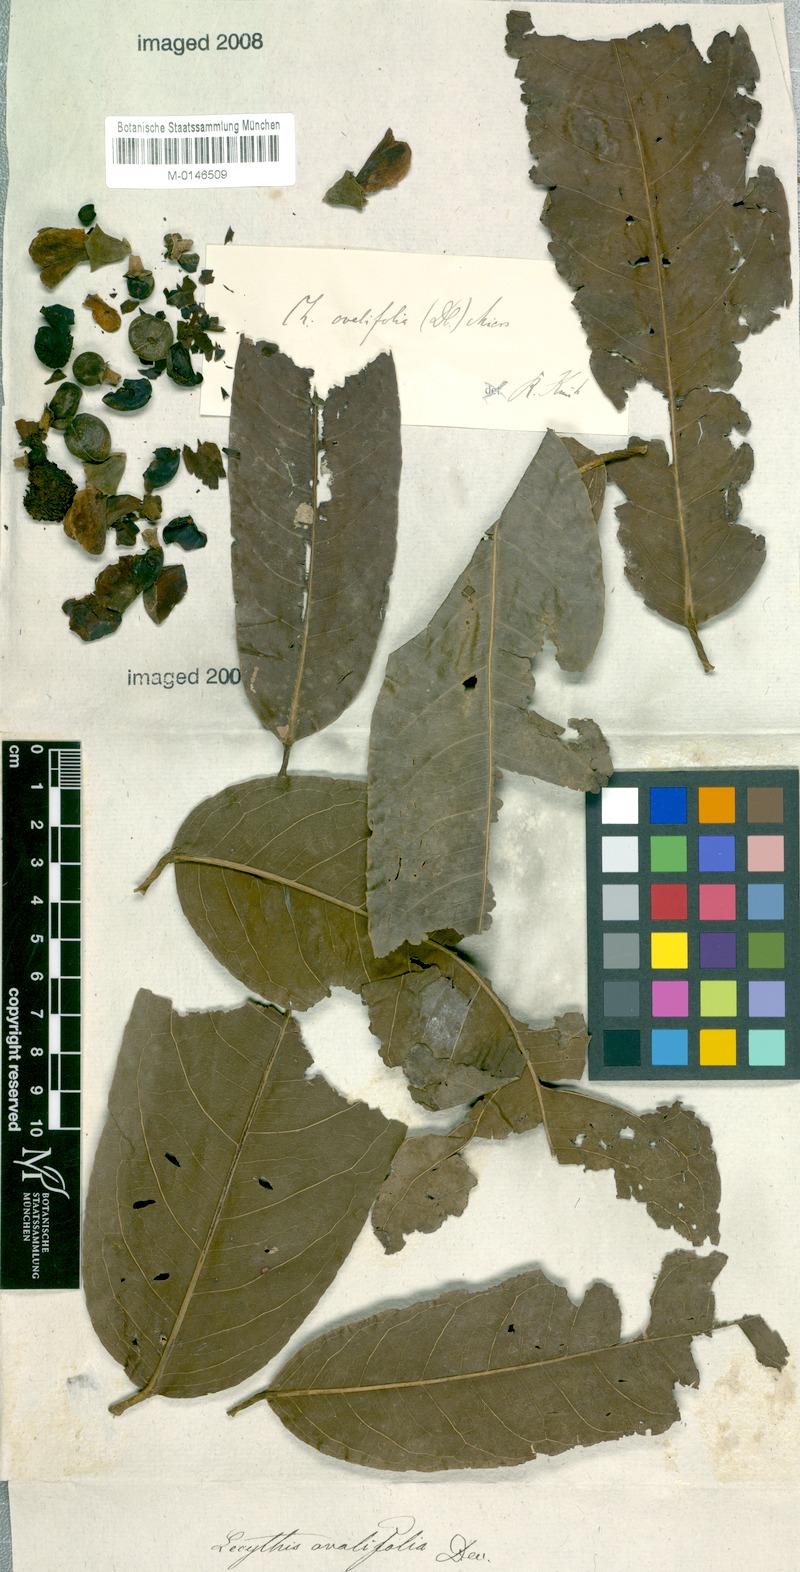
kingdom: Plantae
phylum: Tracheophyta
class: Magnoliopsida
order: Ericales
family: Lecythidaceae
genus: Eschweilera
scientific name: Eschweilera ovata
